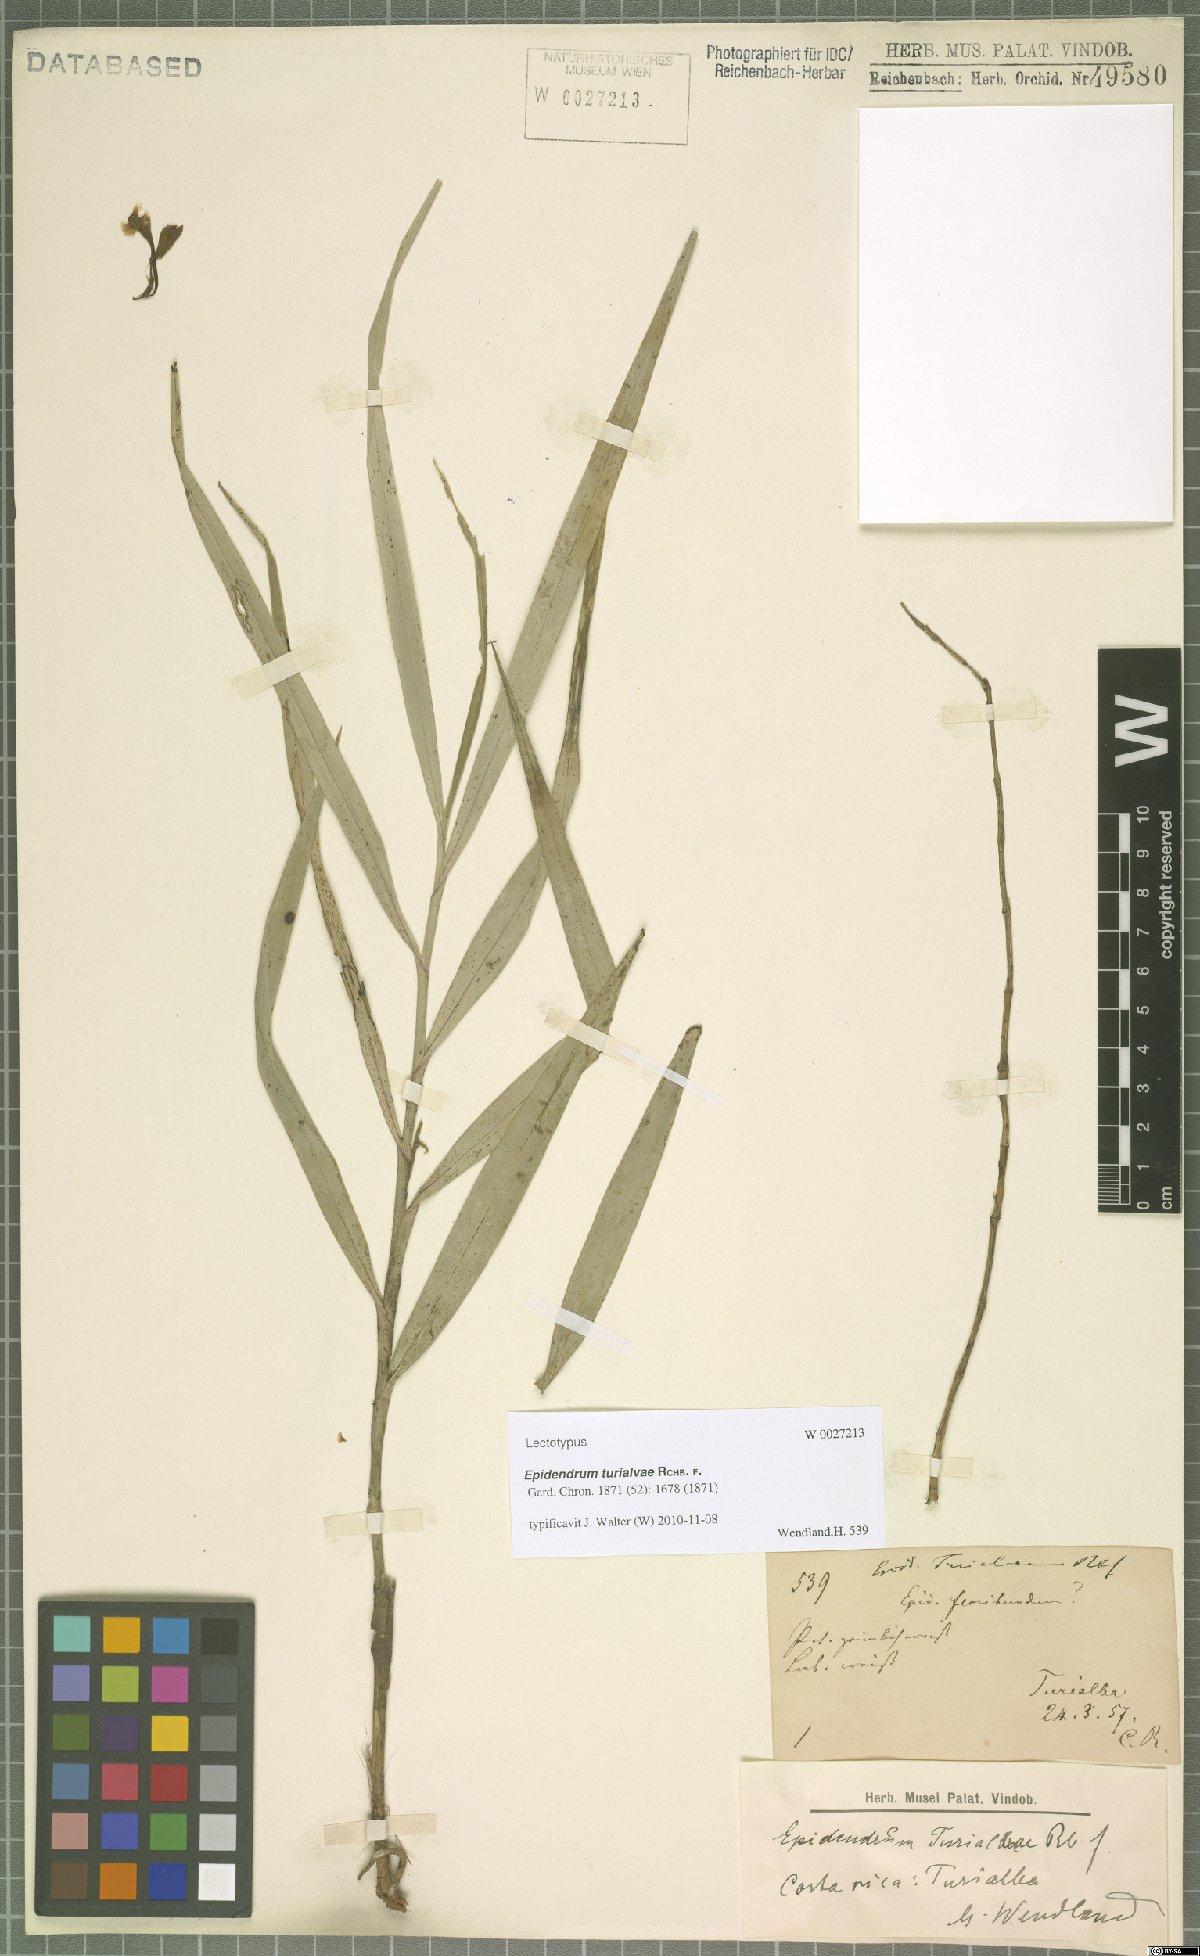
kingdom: Plantae
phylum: Tracheophyta
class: Liliopsida
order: Asparagales
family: Orchidaceae
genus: Epidendrum
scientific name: Epidendrum turialvae
